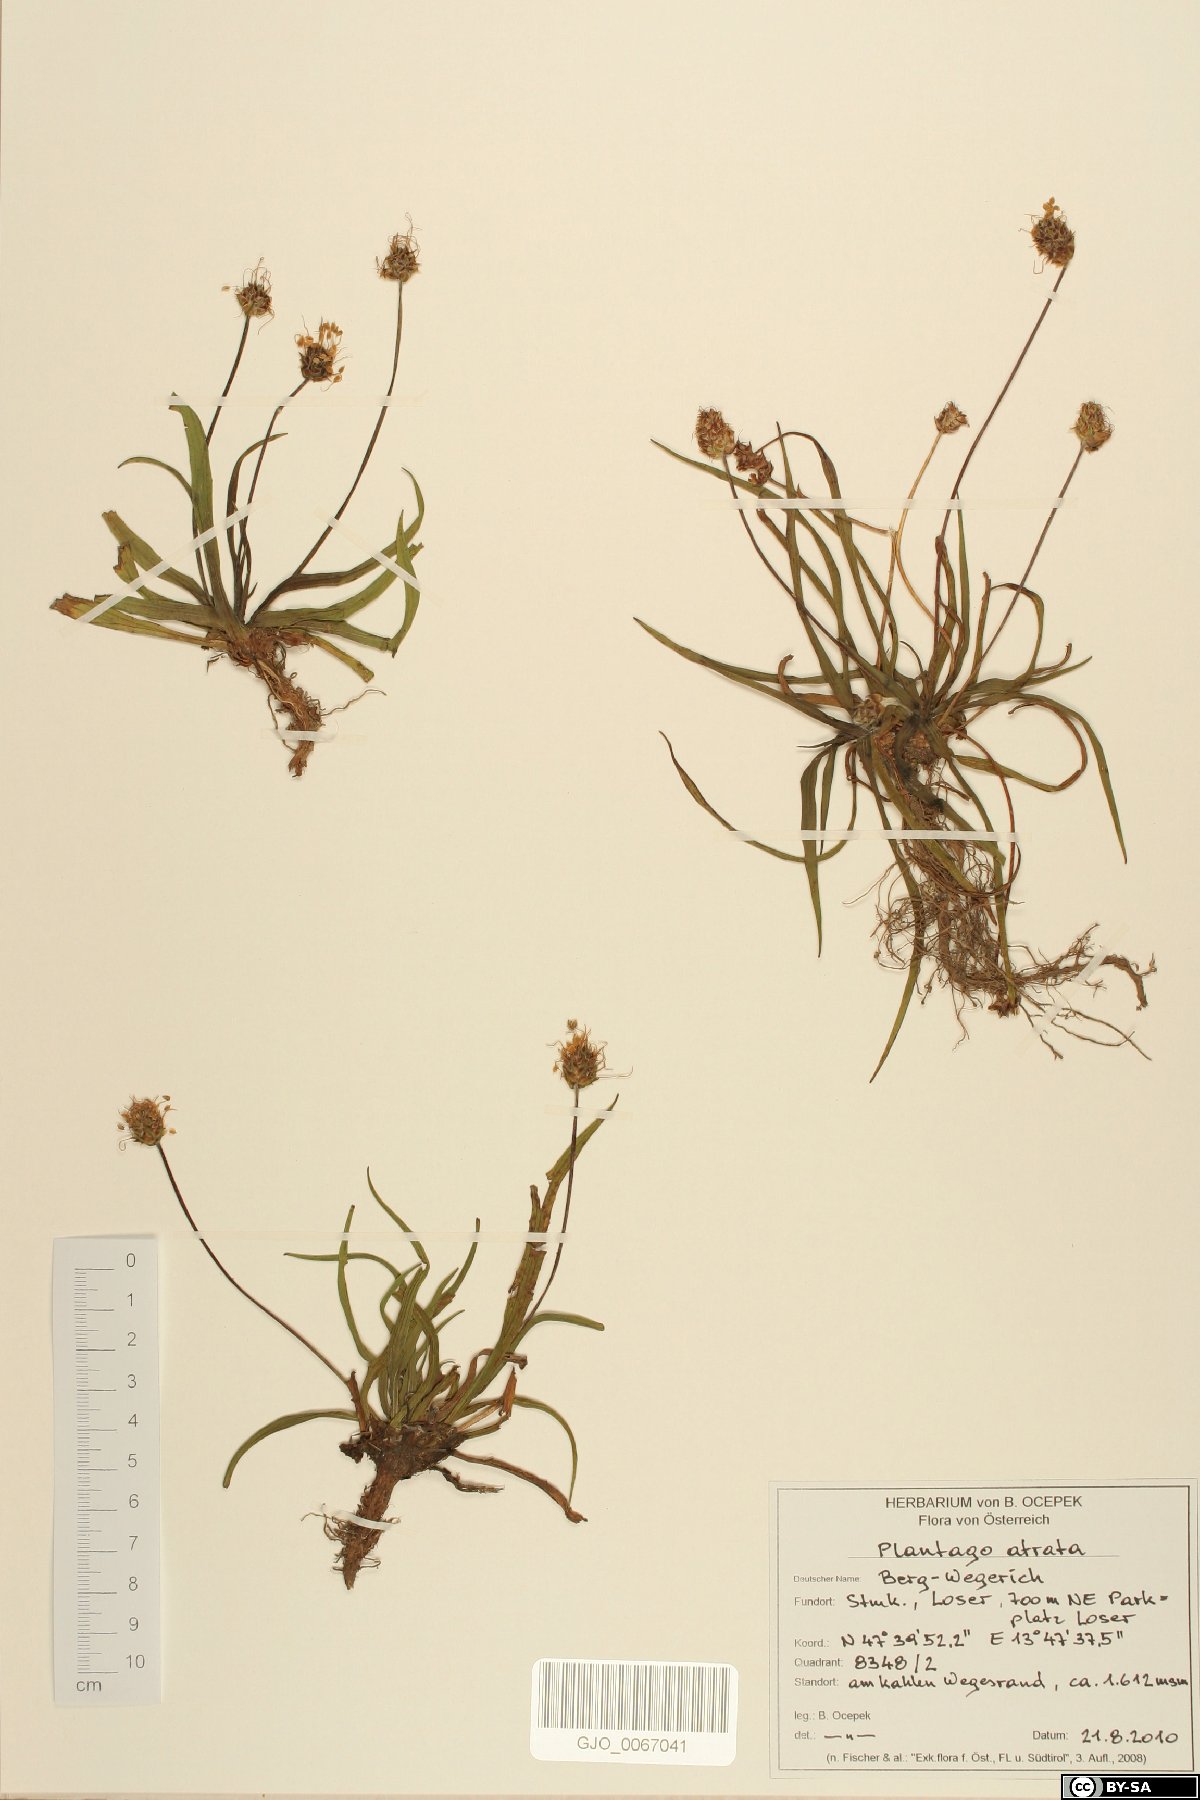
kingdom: Plantae
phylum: Tracheophyta
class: Magnoliopsida
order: Lamiales
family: Plantaginaceae
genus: Plantago
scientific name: Plantago atrata
